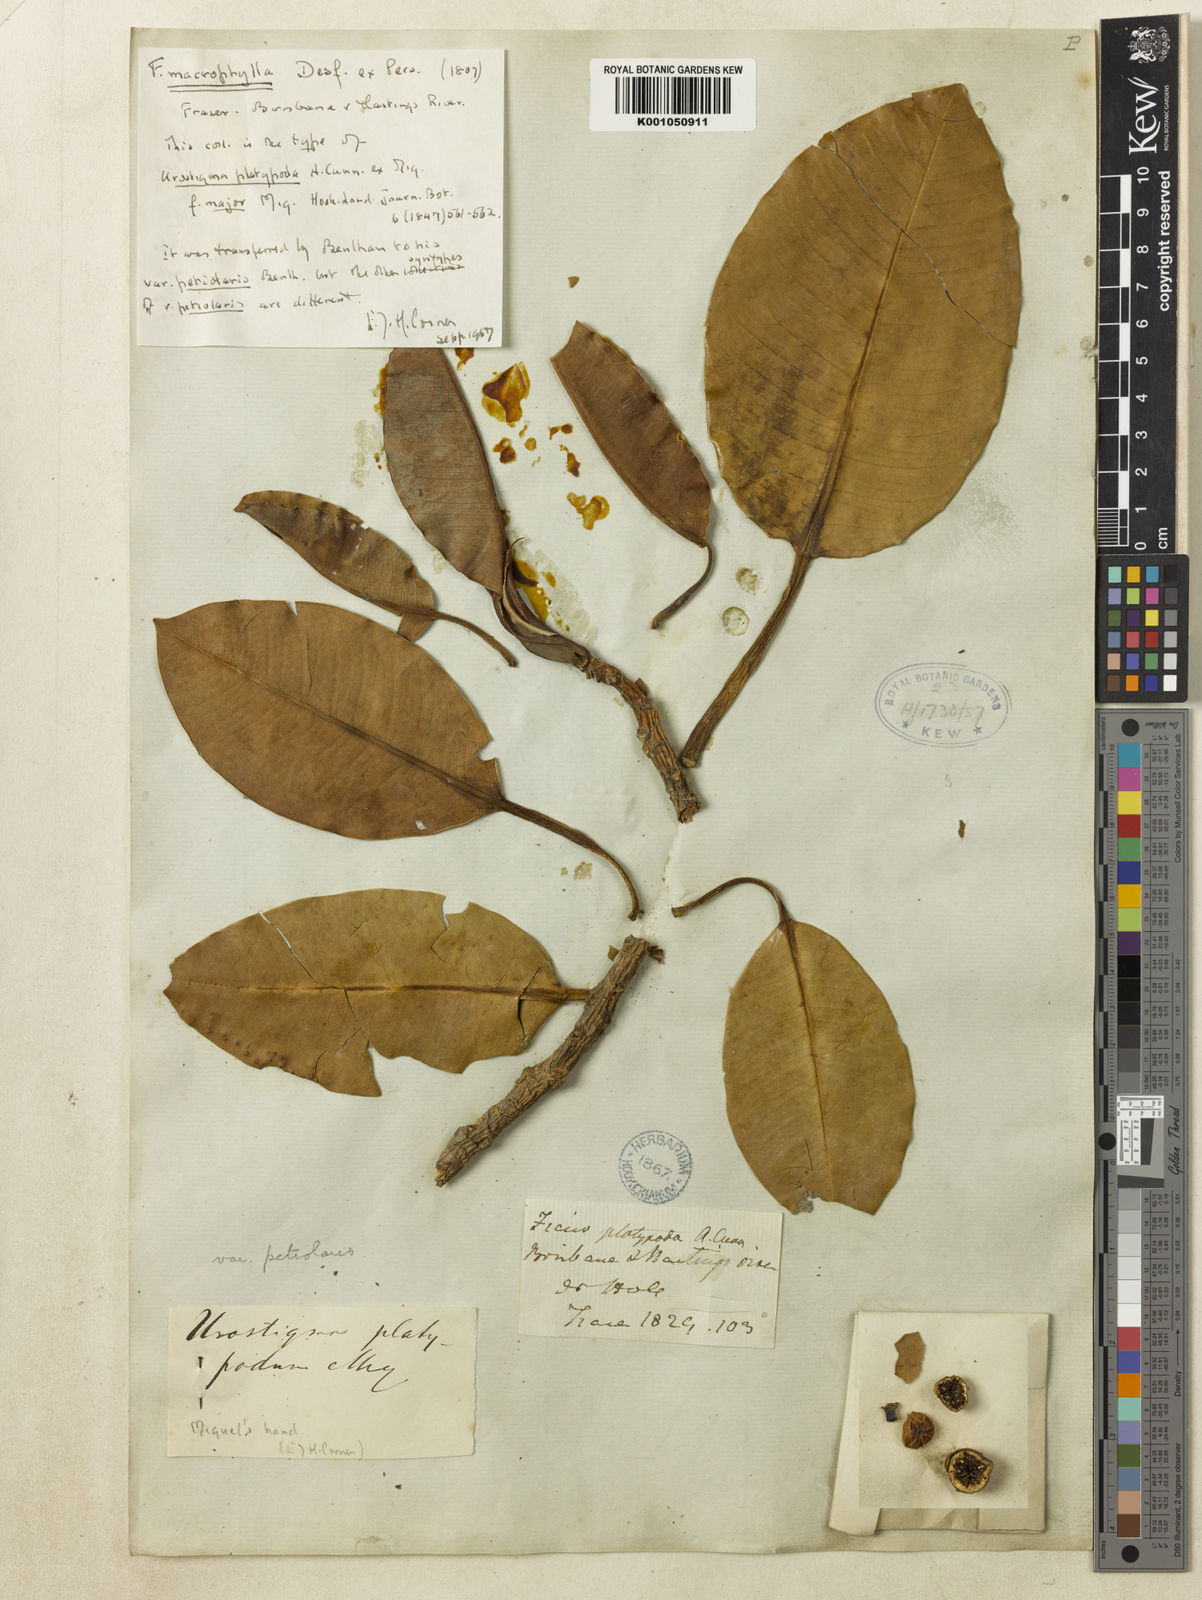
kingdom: Plantae
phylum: Tracheophyta
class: Magnoliopsida
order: Rosales
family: Moraceae
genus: Ficus
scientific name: Ficus
